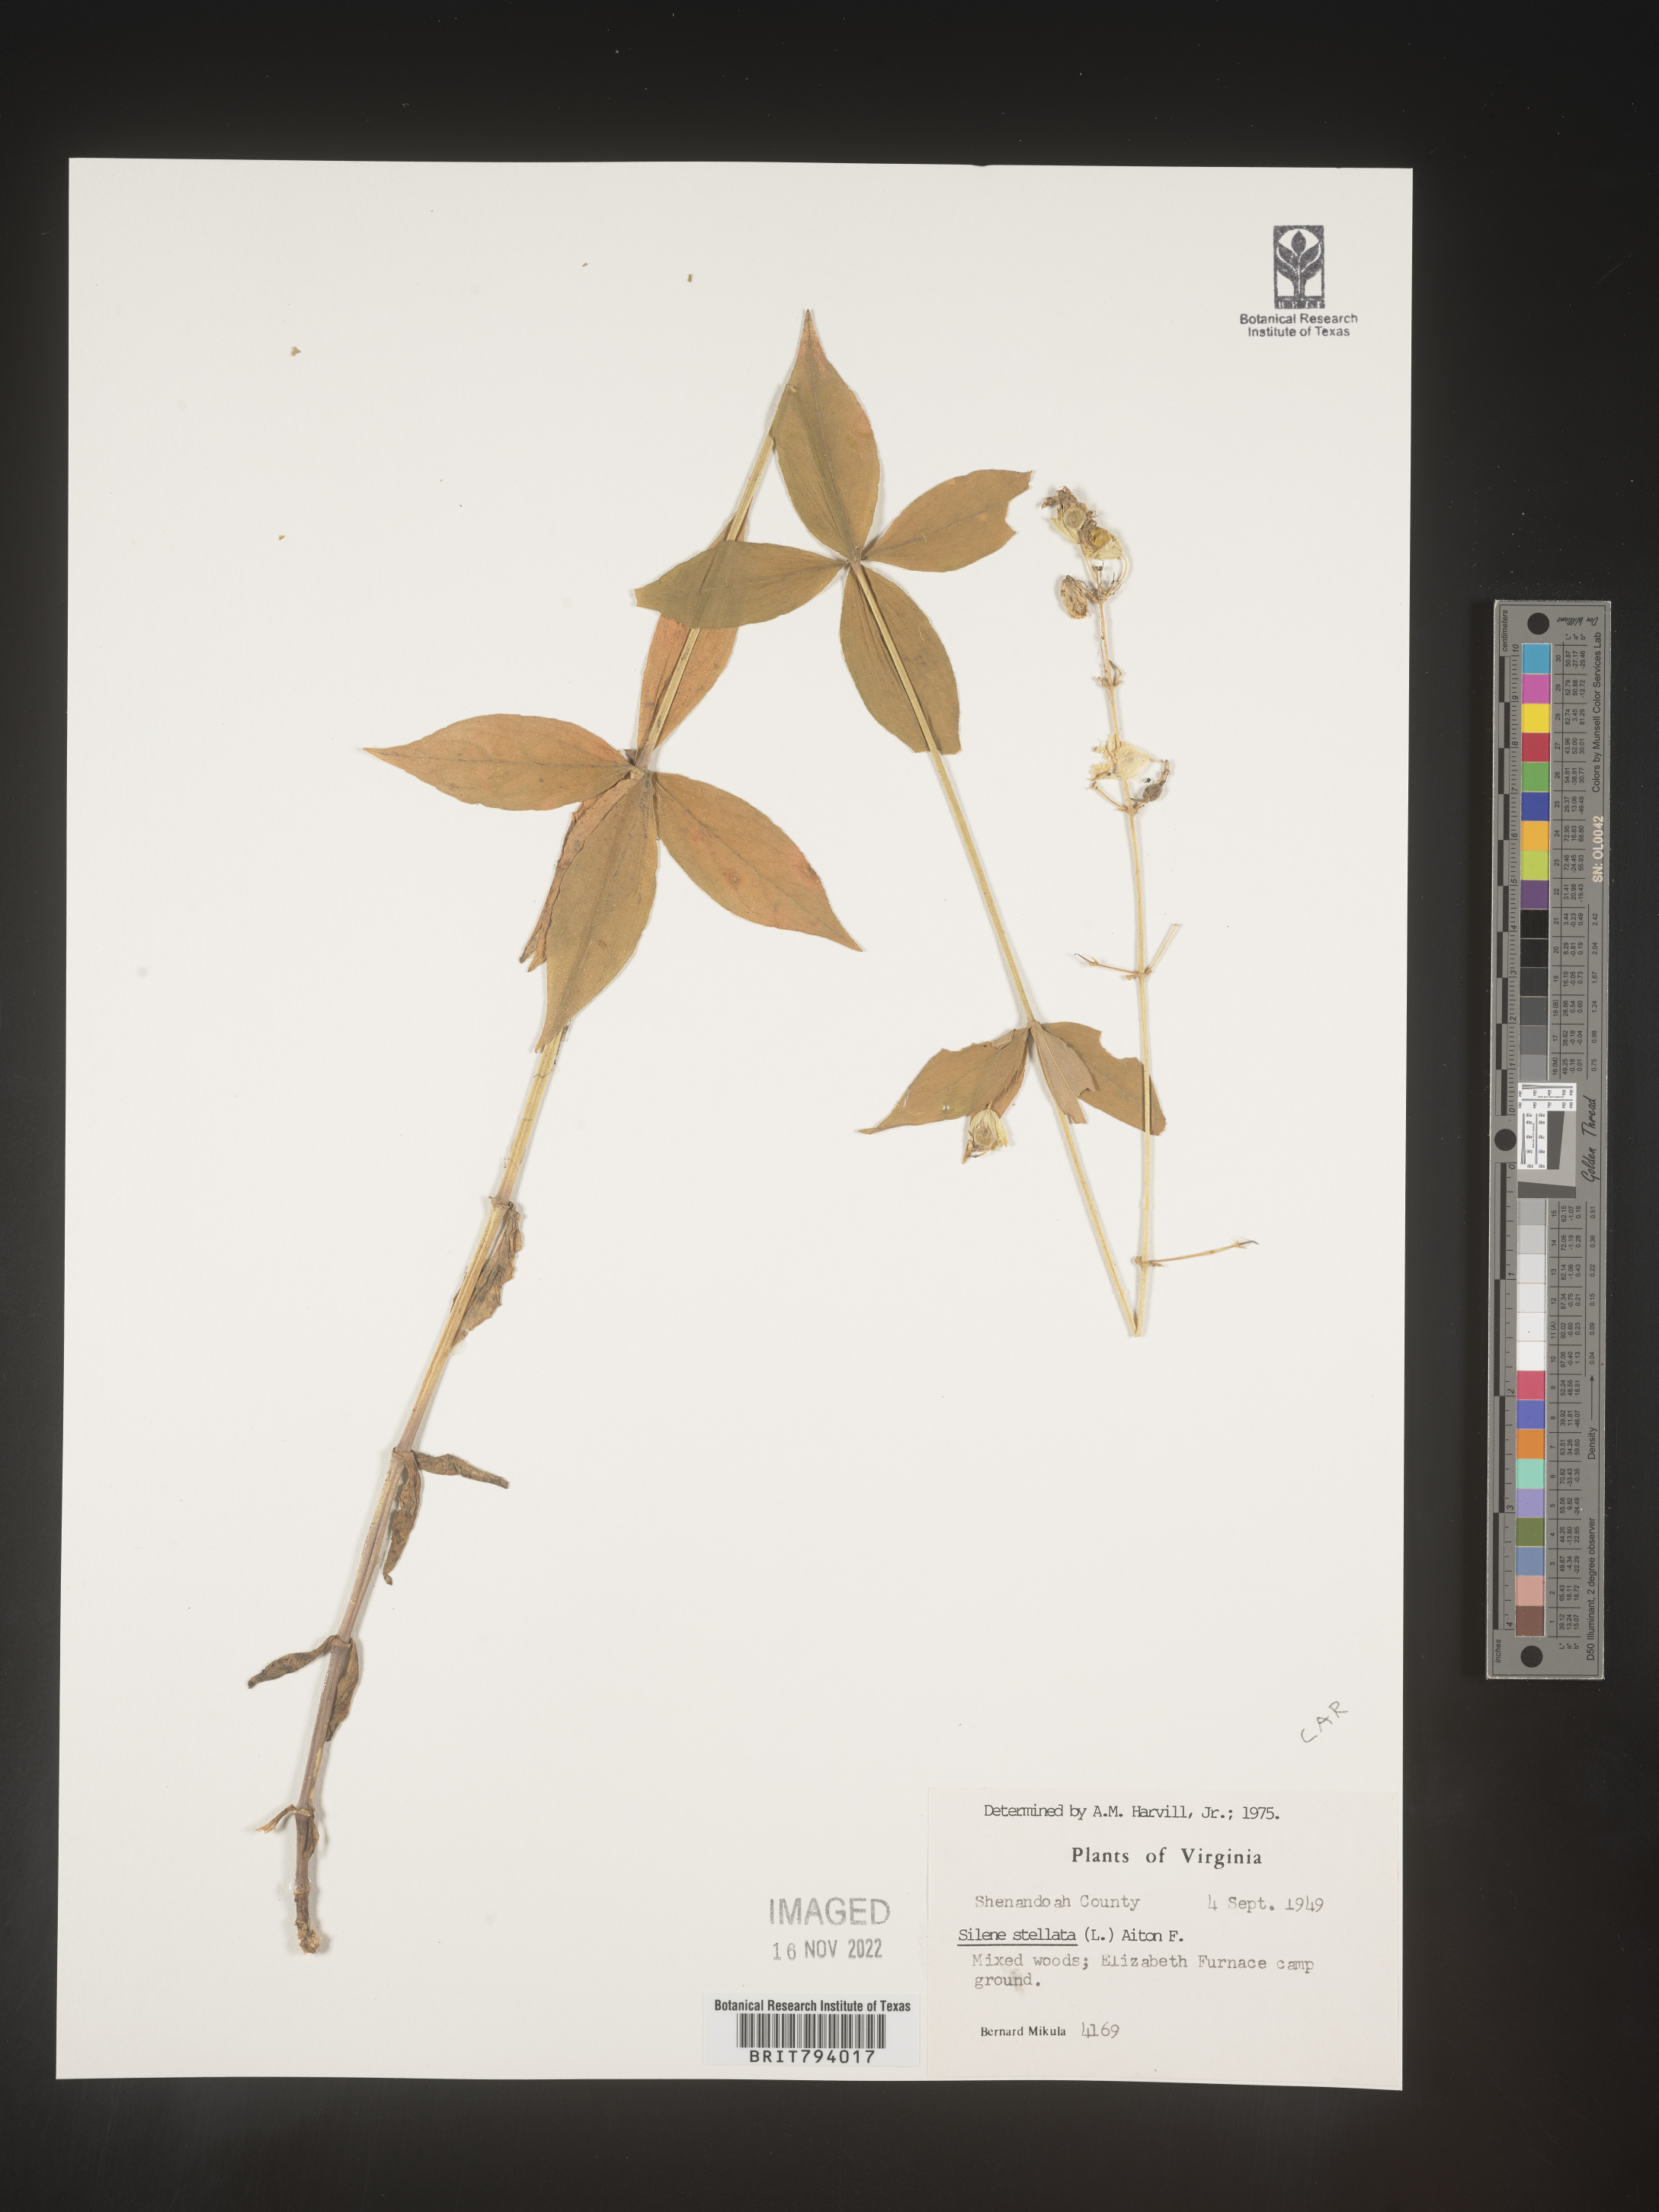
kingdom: Plantae
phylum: Tracheophyta
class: Magnoliopsida
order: Caryophyllales
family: Caryophyllaceae
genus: Silene
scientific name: Silene stellata
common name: Starry campion
